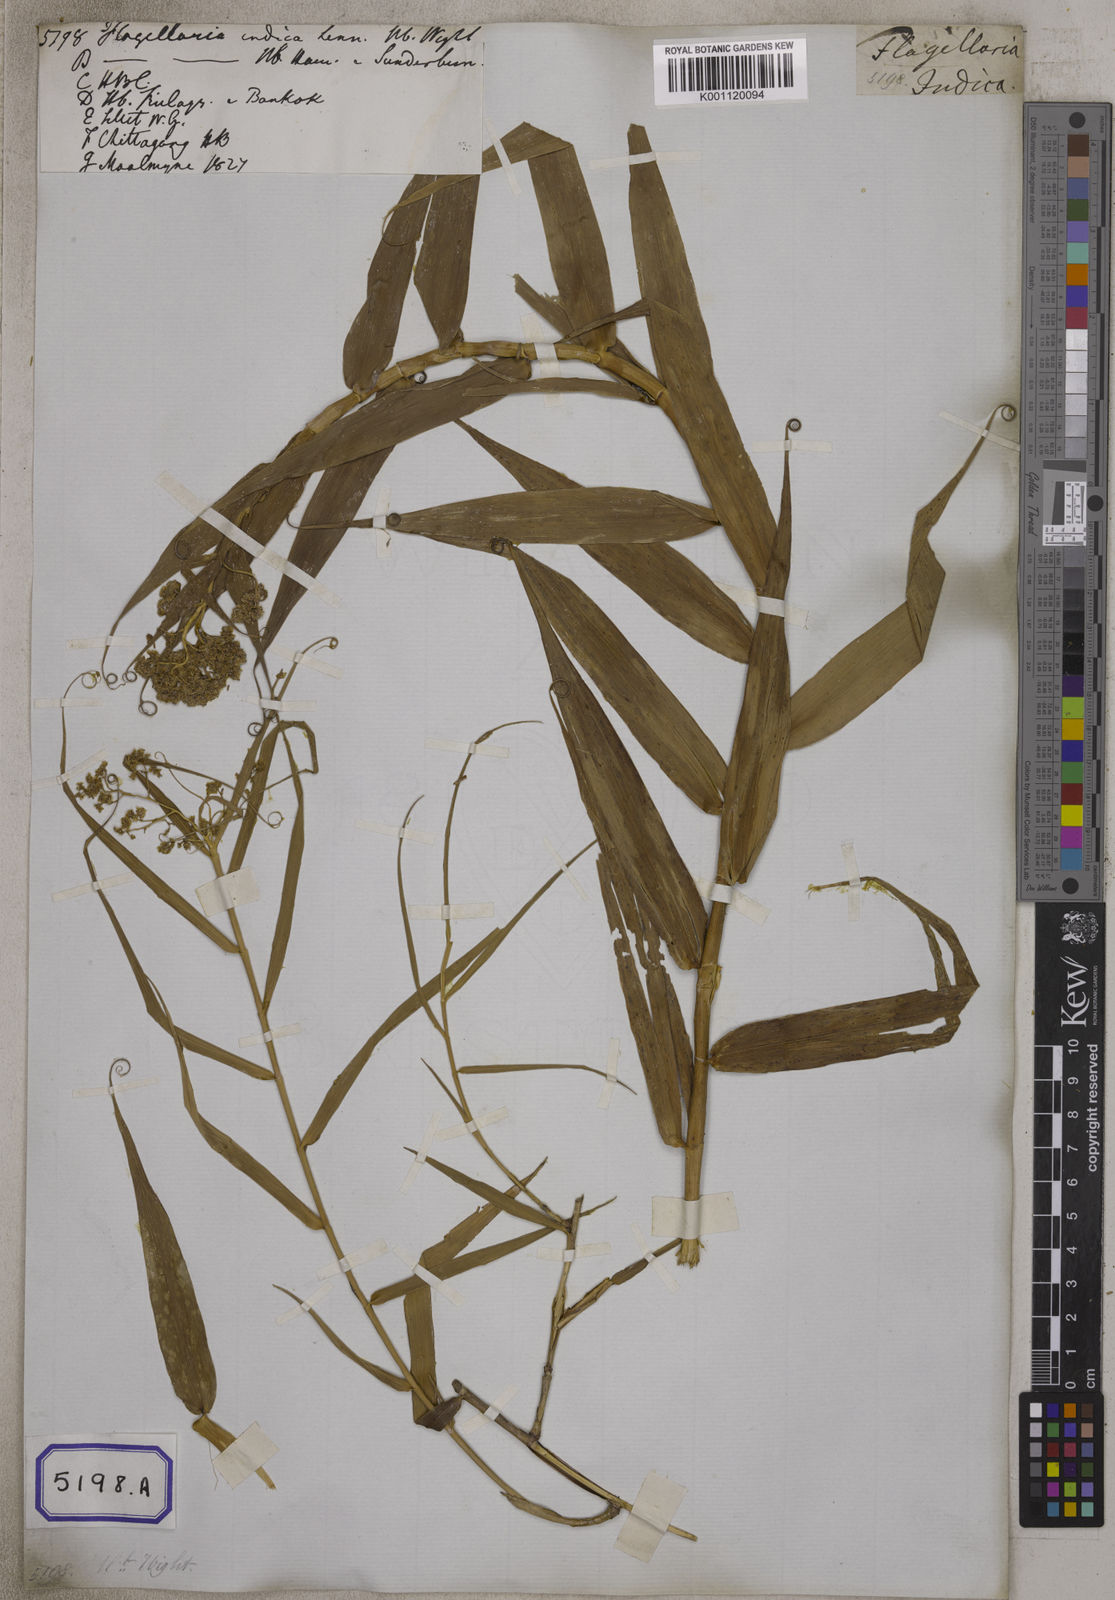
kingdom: Plantae
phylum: Tracheophyta
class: Liliopsida
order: Poales
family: Flagellariaceae
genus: Flagellaria
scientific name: Flagellaria indica
